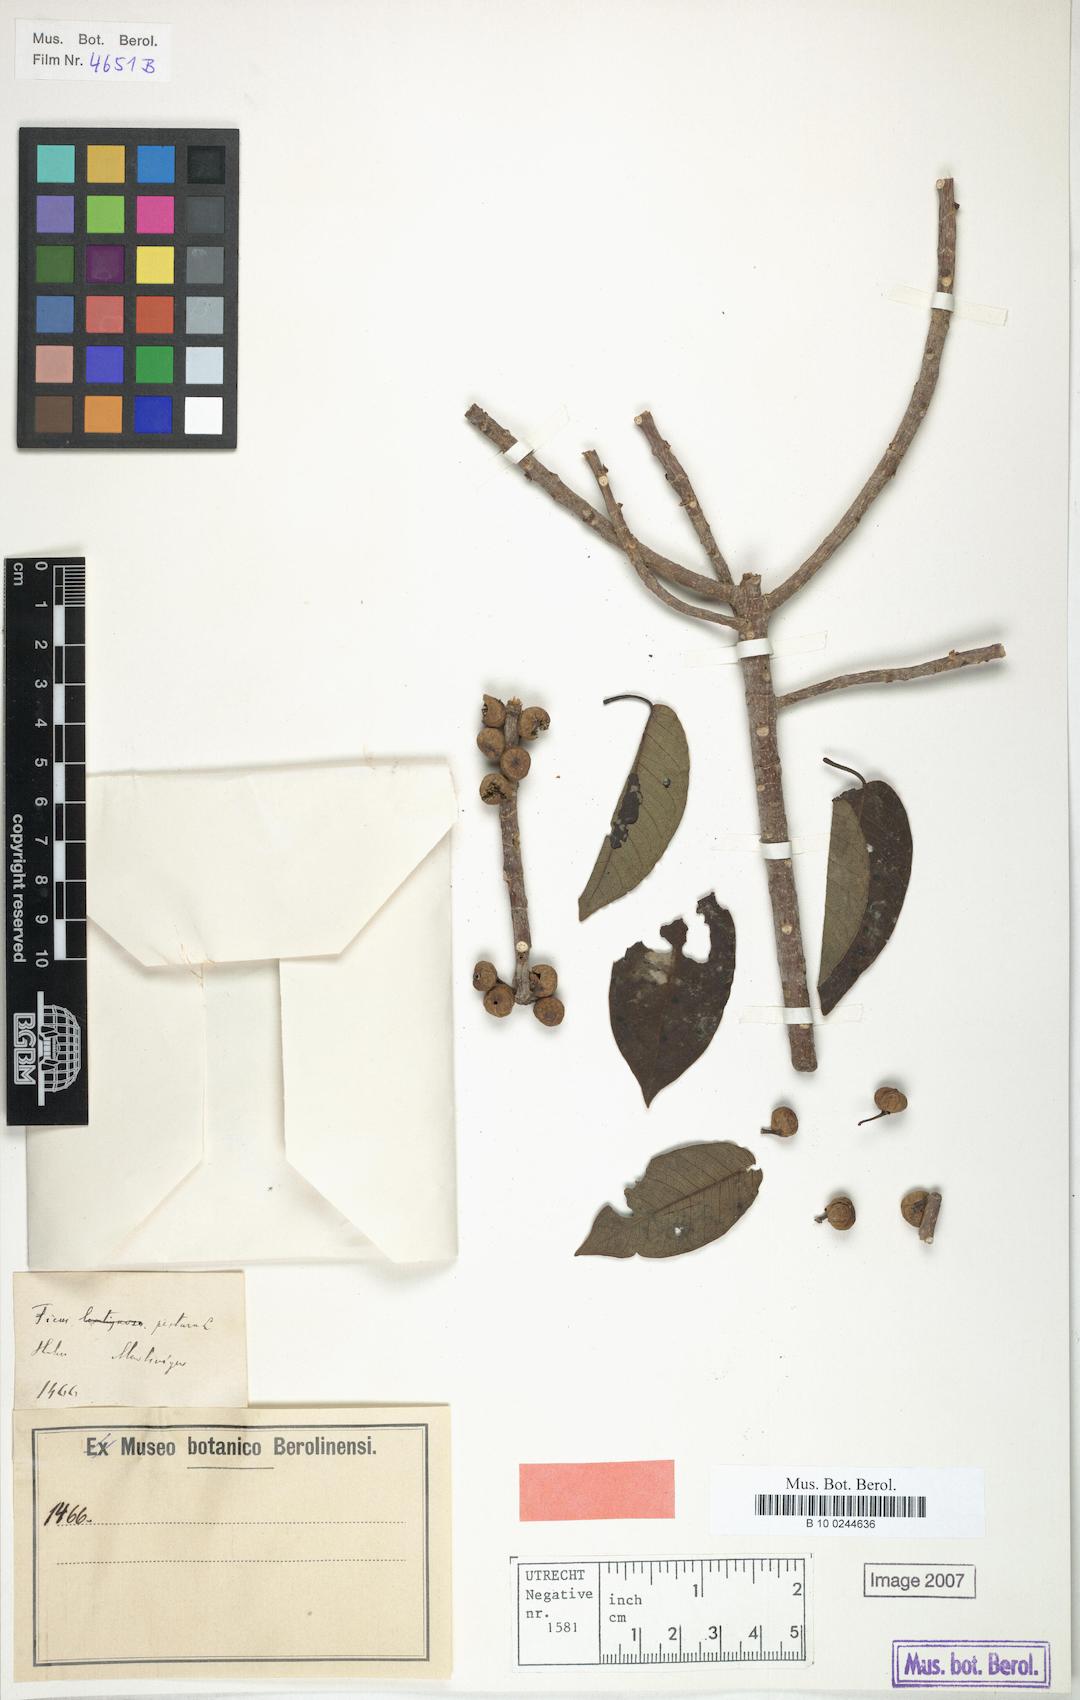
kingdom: Plantae
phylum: Tracheophyta
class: Magnoliopsida
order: Rosales
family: Moraceae
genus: Ficus
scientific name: Ficus pertusa
